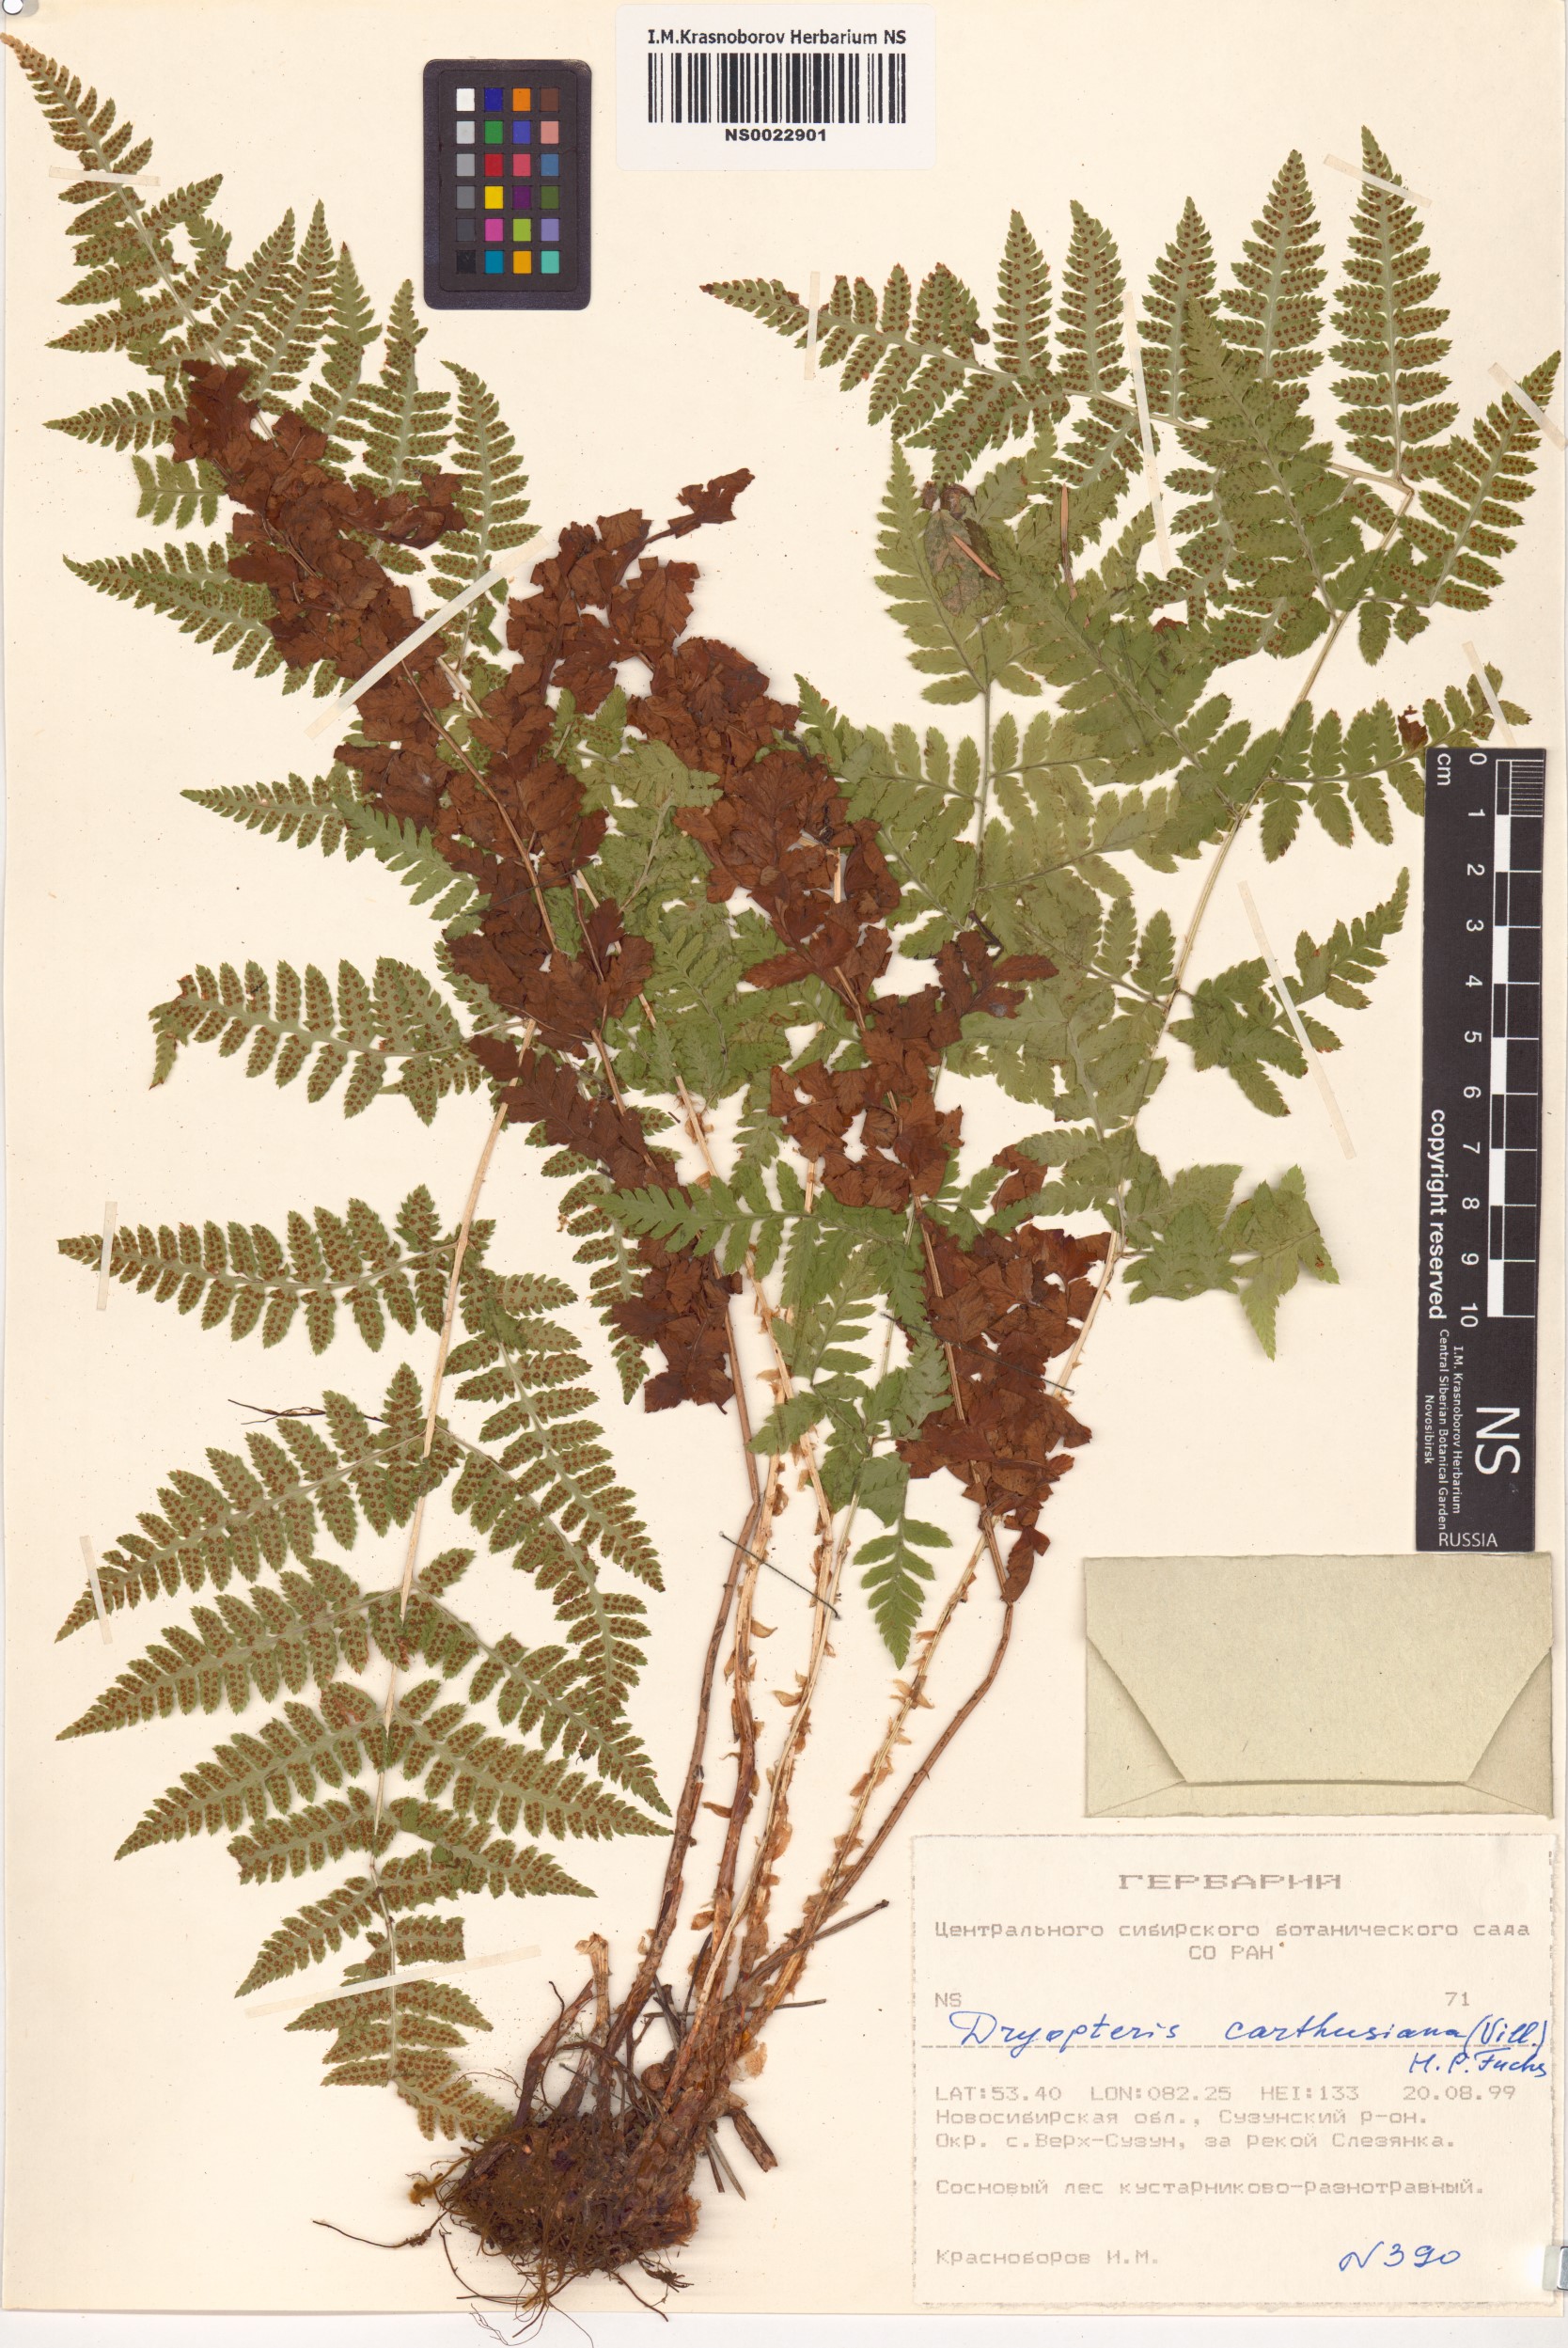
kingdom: Plantae
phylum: Tracheophyta
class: Polypodiopsida
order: Polypodiales
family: Dryopteridaceae
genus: Dryopteris
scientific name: Dryopteris carthusiana
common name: Narrow buckler-fern
